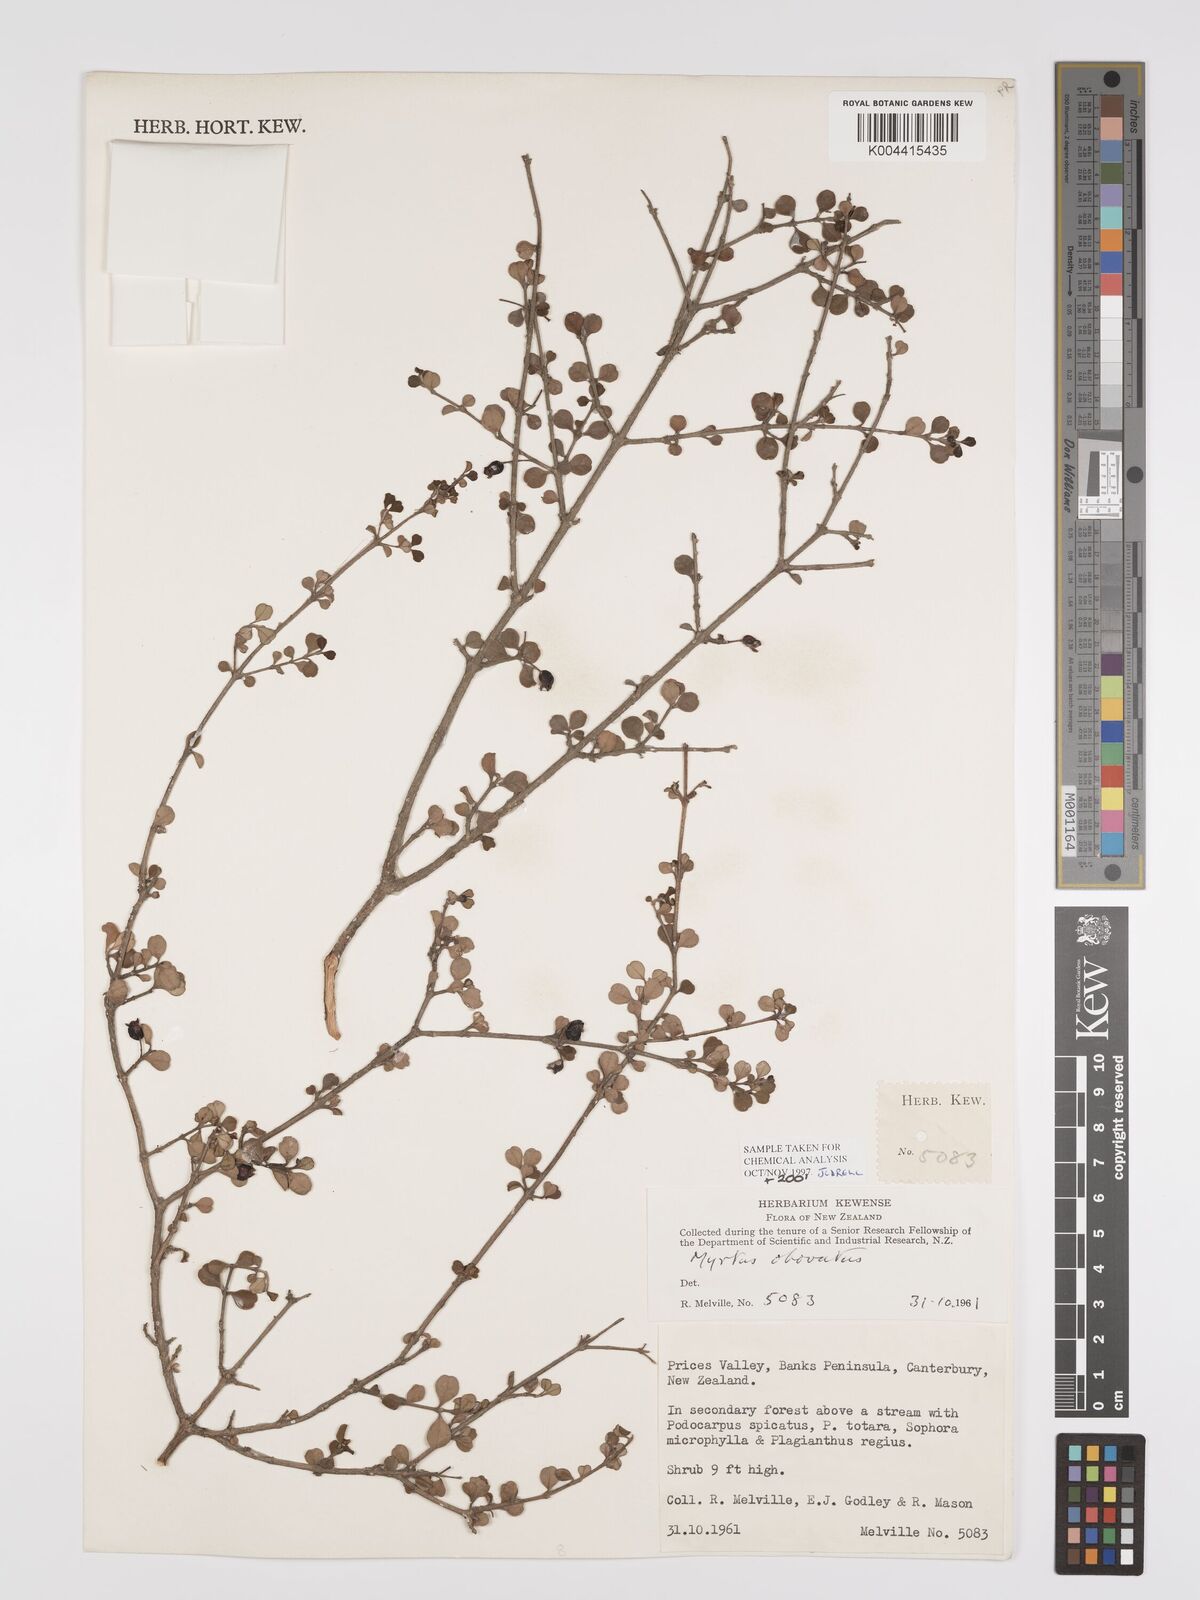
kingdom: Plantae
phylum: Tracheophyta
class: Magnoliopsida
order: Myrtales
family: Myrtaceae
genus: Neomyrtus
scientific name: Neomyrtus pedunculata
